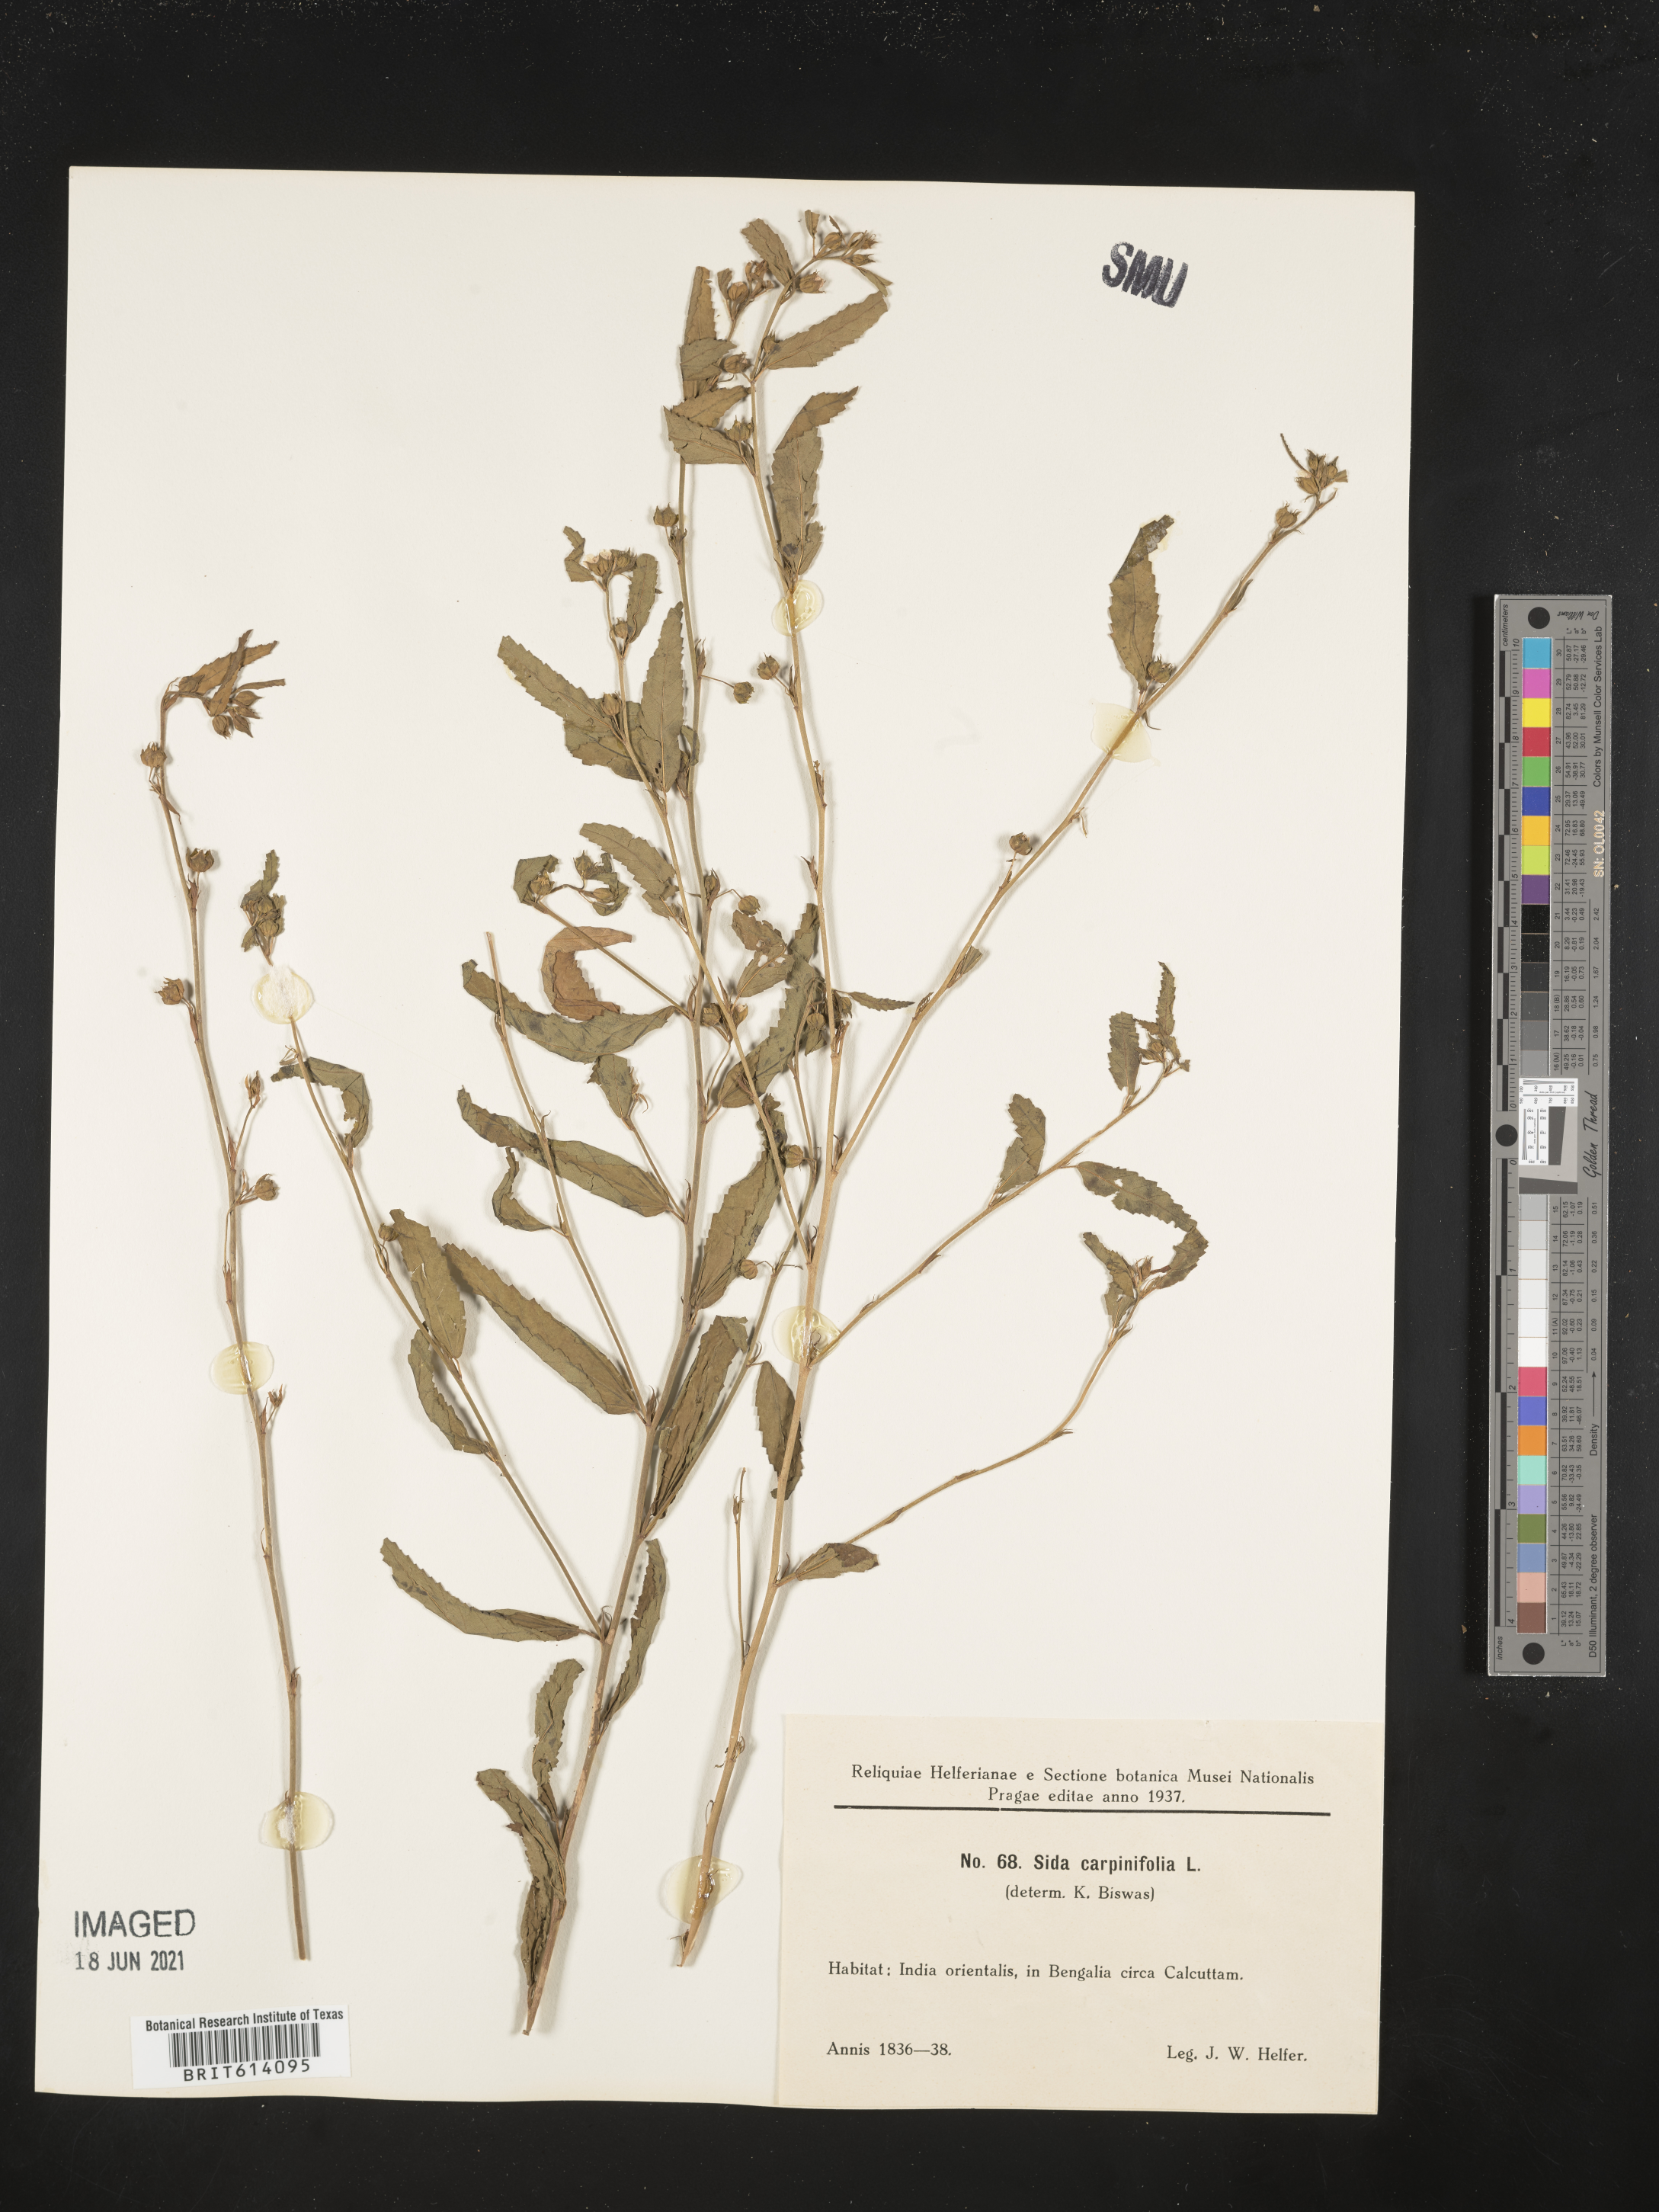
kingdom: Plantae
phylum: Tracheophyta
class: Magnoliopsida
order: Malvales
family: Malvaceae
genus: Sida
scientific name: Sida ulmifolia
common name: Broom weed
